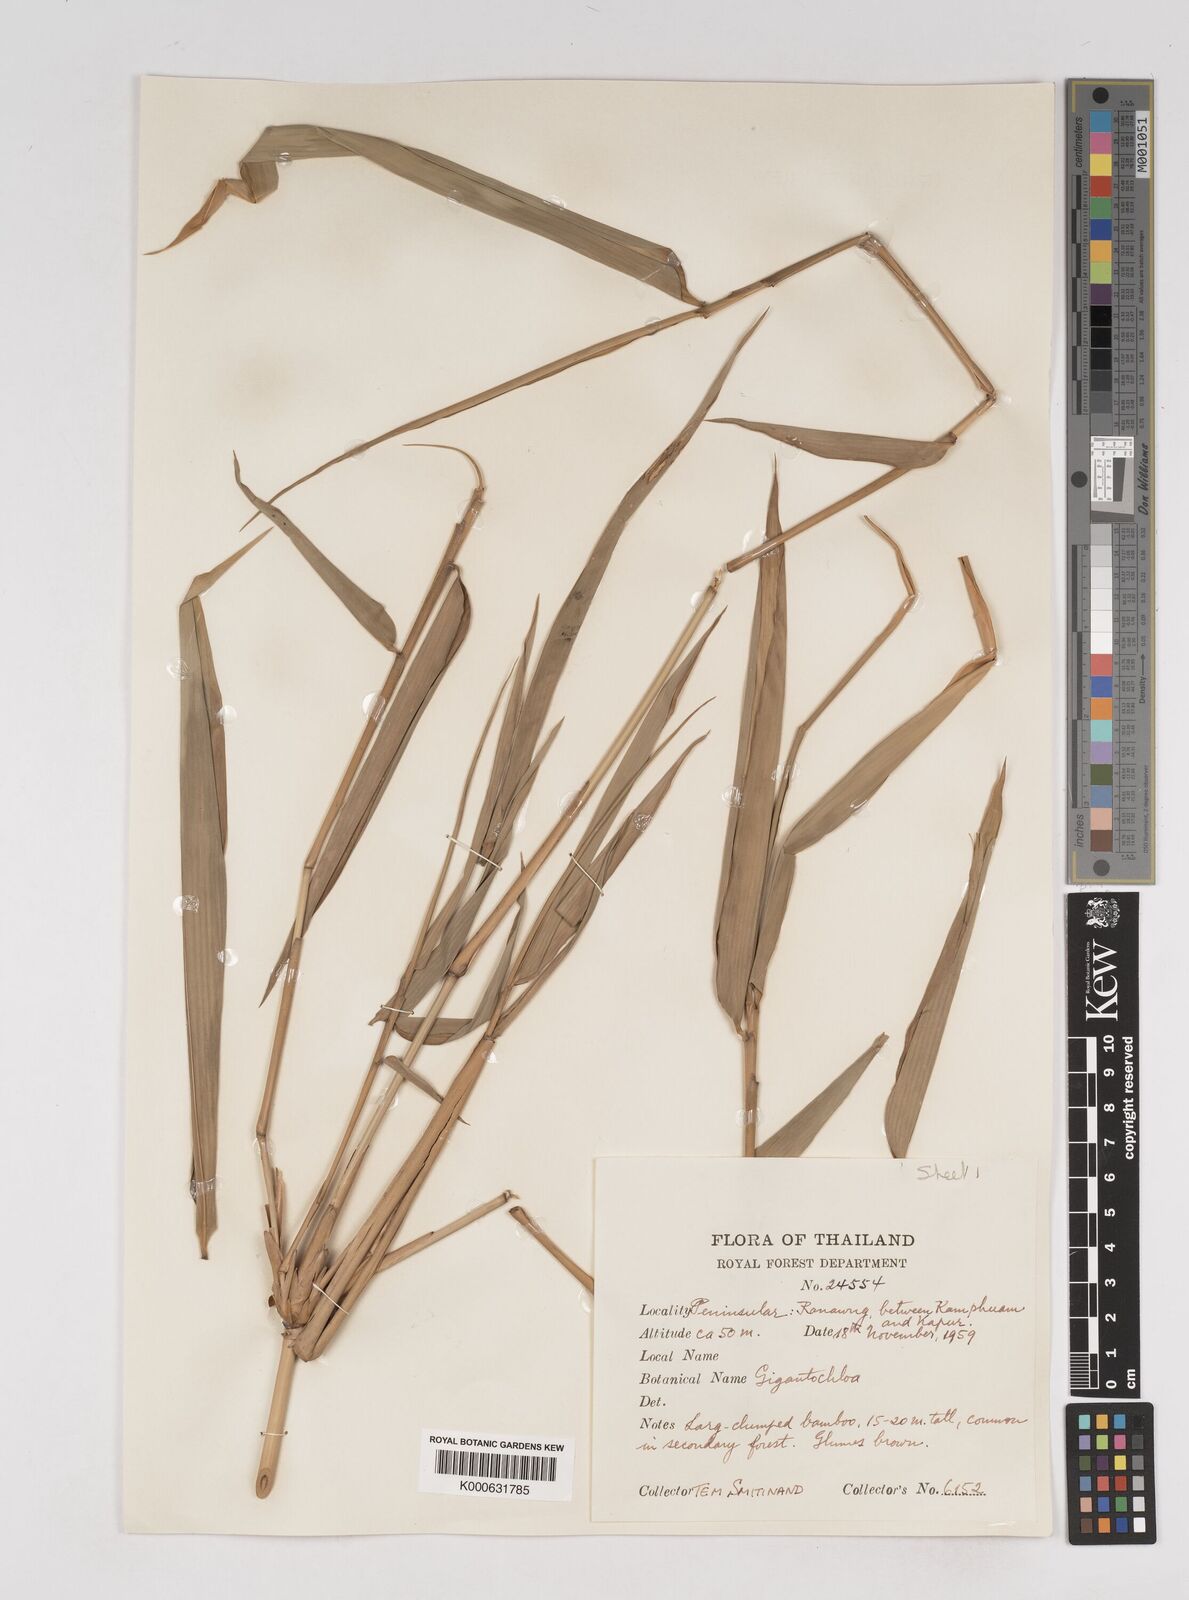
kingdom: Plantae
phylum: Tracheophyta
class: Liliopsida
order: Poales
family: Poaceae
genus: Gigantochloa
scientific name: Gigantochloa
